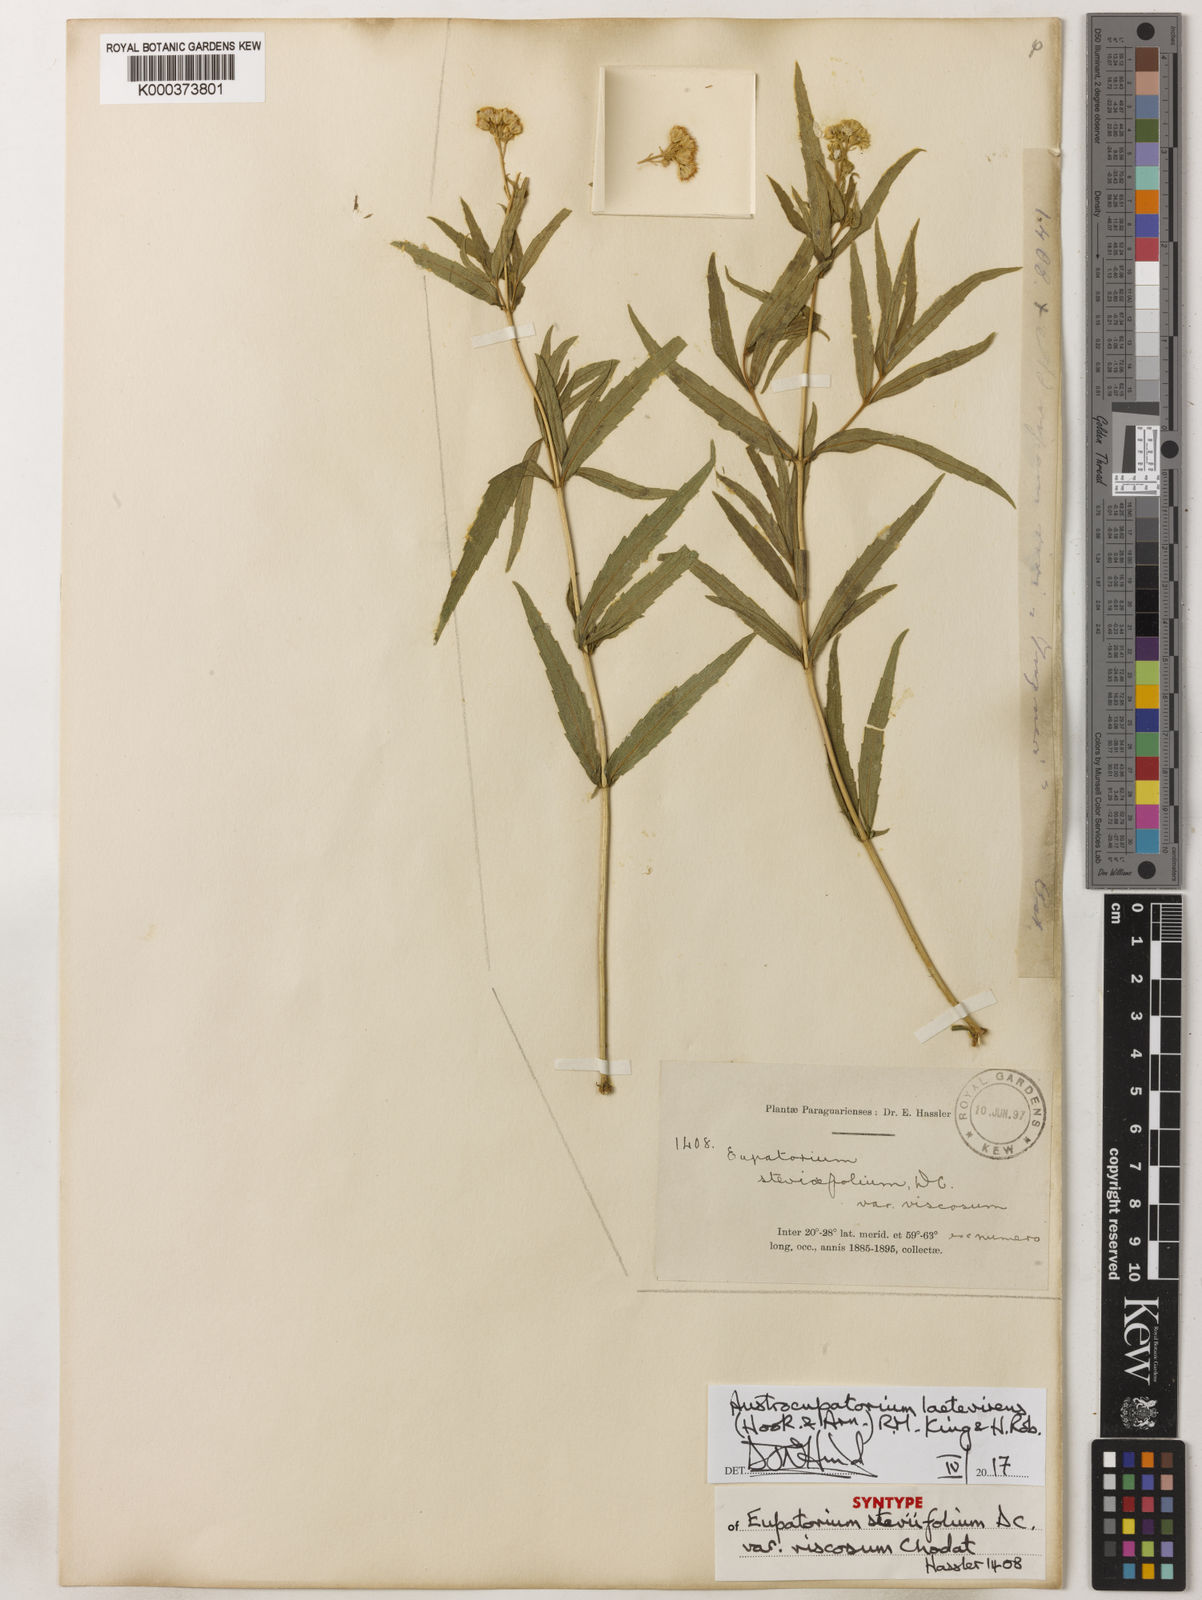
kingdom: Plantae
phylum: Tracheophyta
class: Magnoliopsida
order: Asterales
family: Asteraceae
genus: Austroeupatorium
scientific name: Austroeupatorium laetevirens
